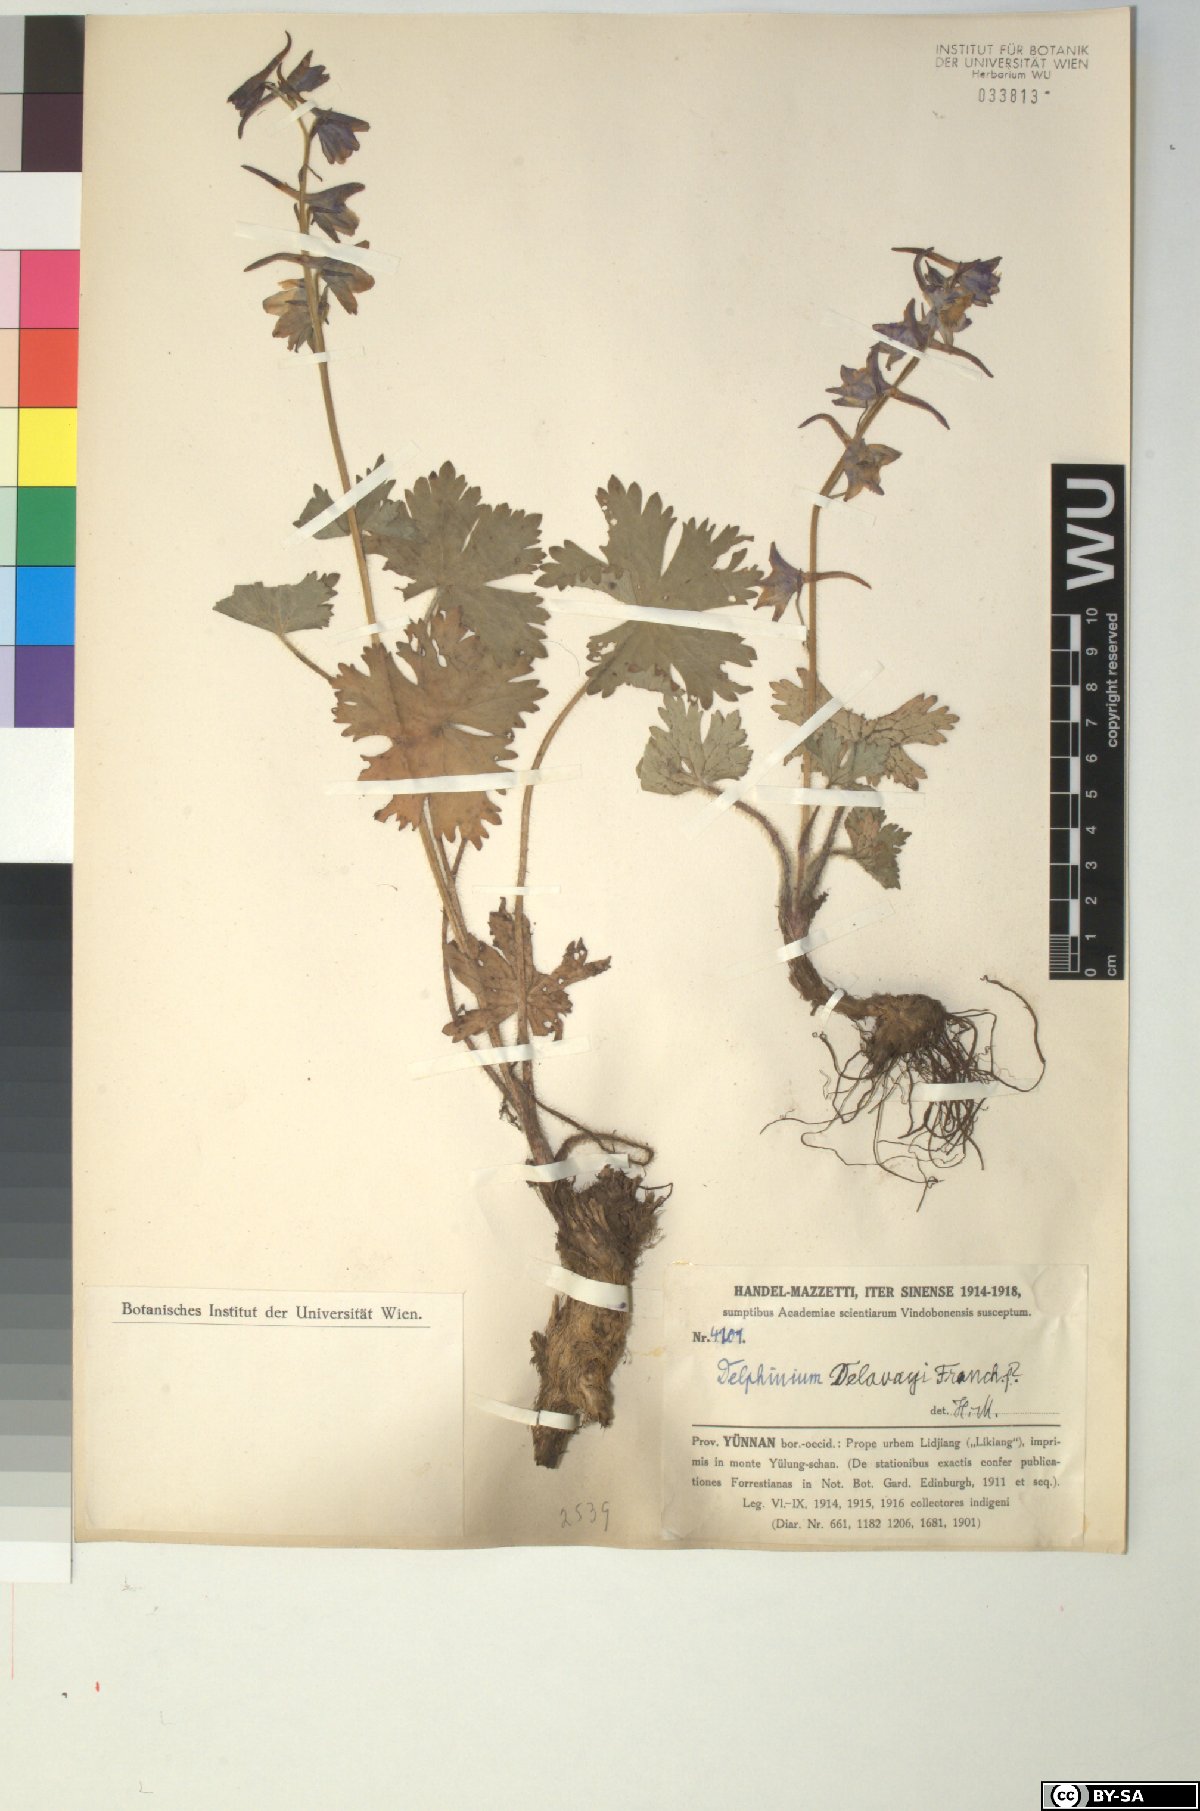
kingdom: Plantae
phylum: Tracheophyta
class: Magnoliopsida
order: Ranunculales
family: Ranunculaceae
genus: Delphinium
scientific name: Delphinium delavayi
